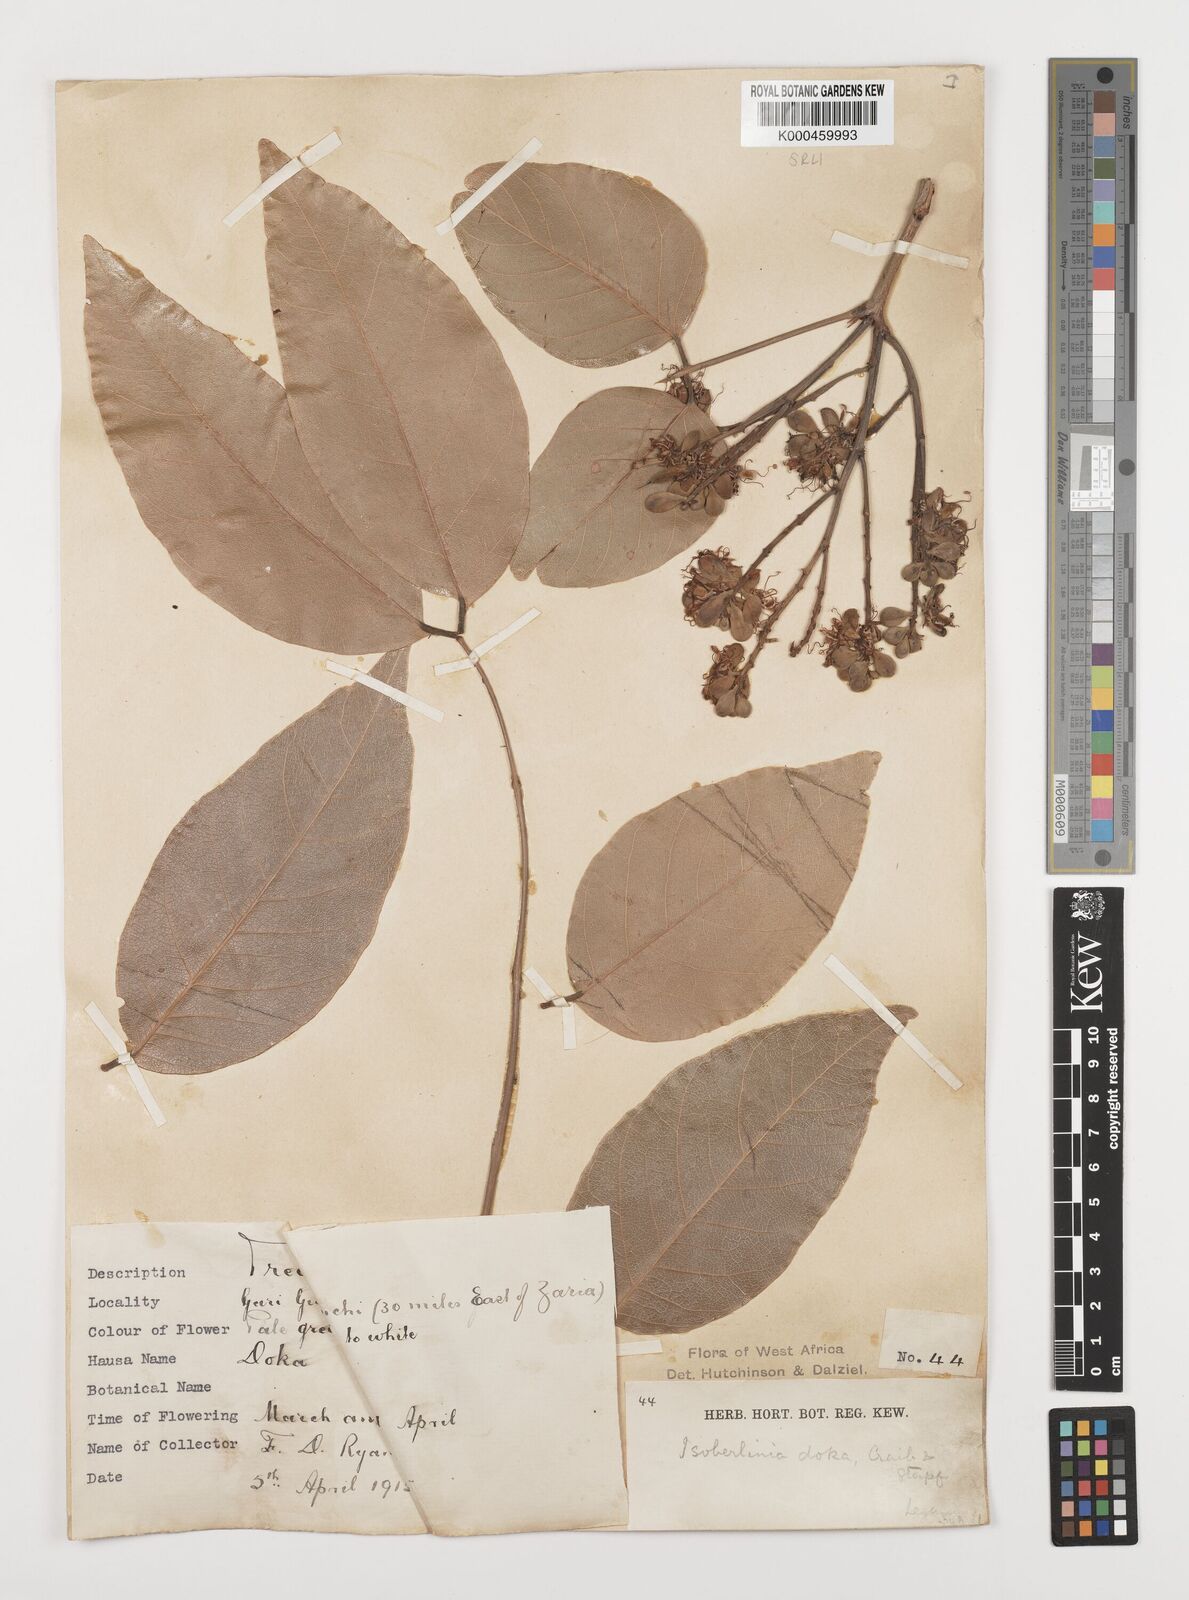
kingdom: Plantae
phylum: Tracheophyta
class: Magnoliopsida
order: Fabales
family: Fabaceae
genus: Isoberlinia
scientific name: Isoberlinia doka
